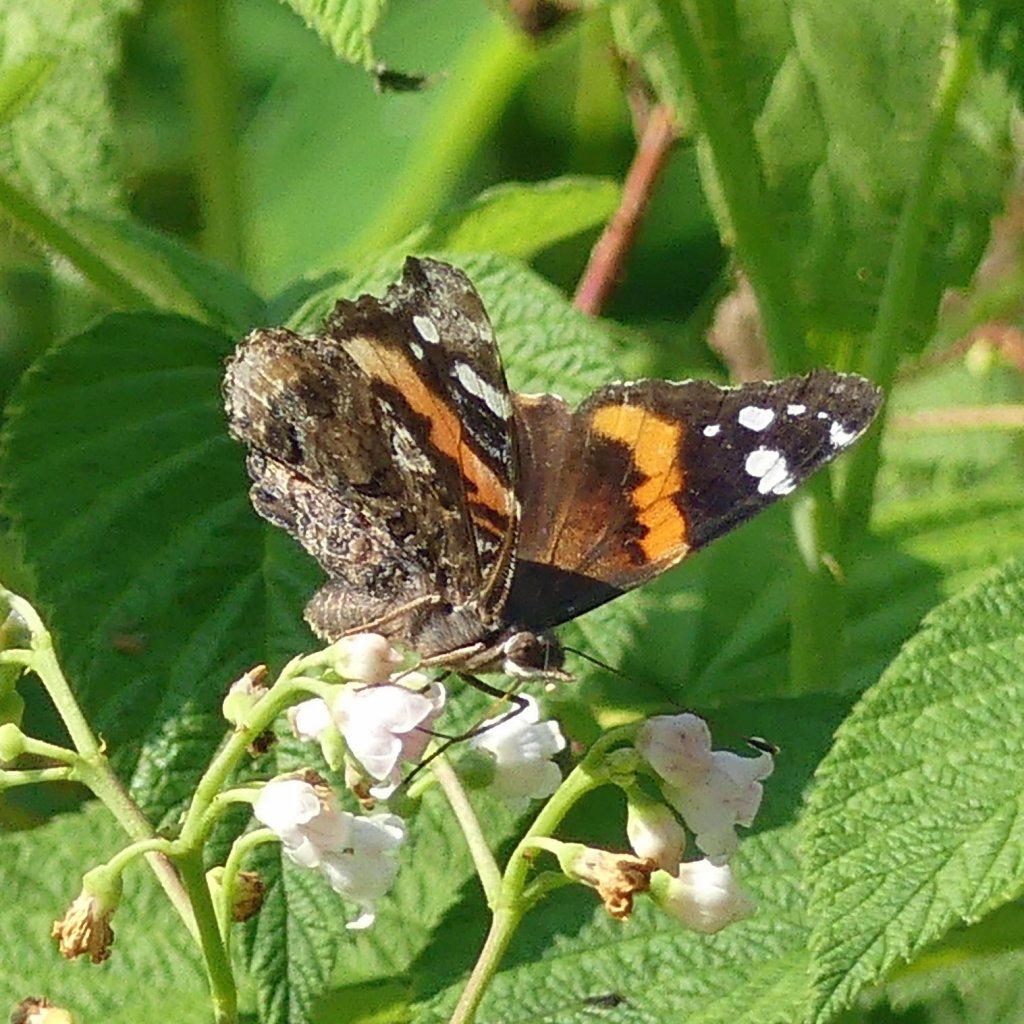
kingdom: Animalia
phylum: Arthropoda
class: Insecta
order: Lepidoptera
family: Nymphalidae
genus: Vanessa
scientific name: Vanessa atalanta
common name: Red Admiral
